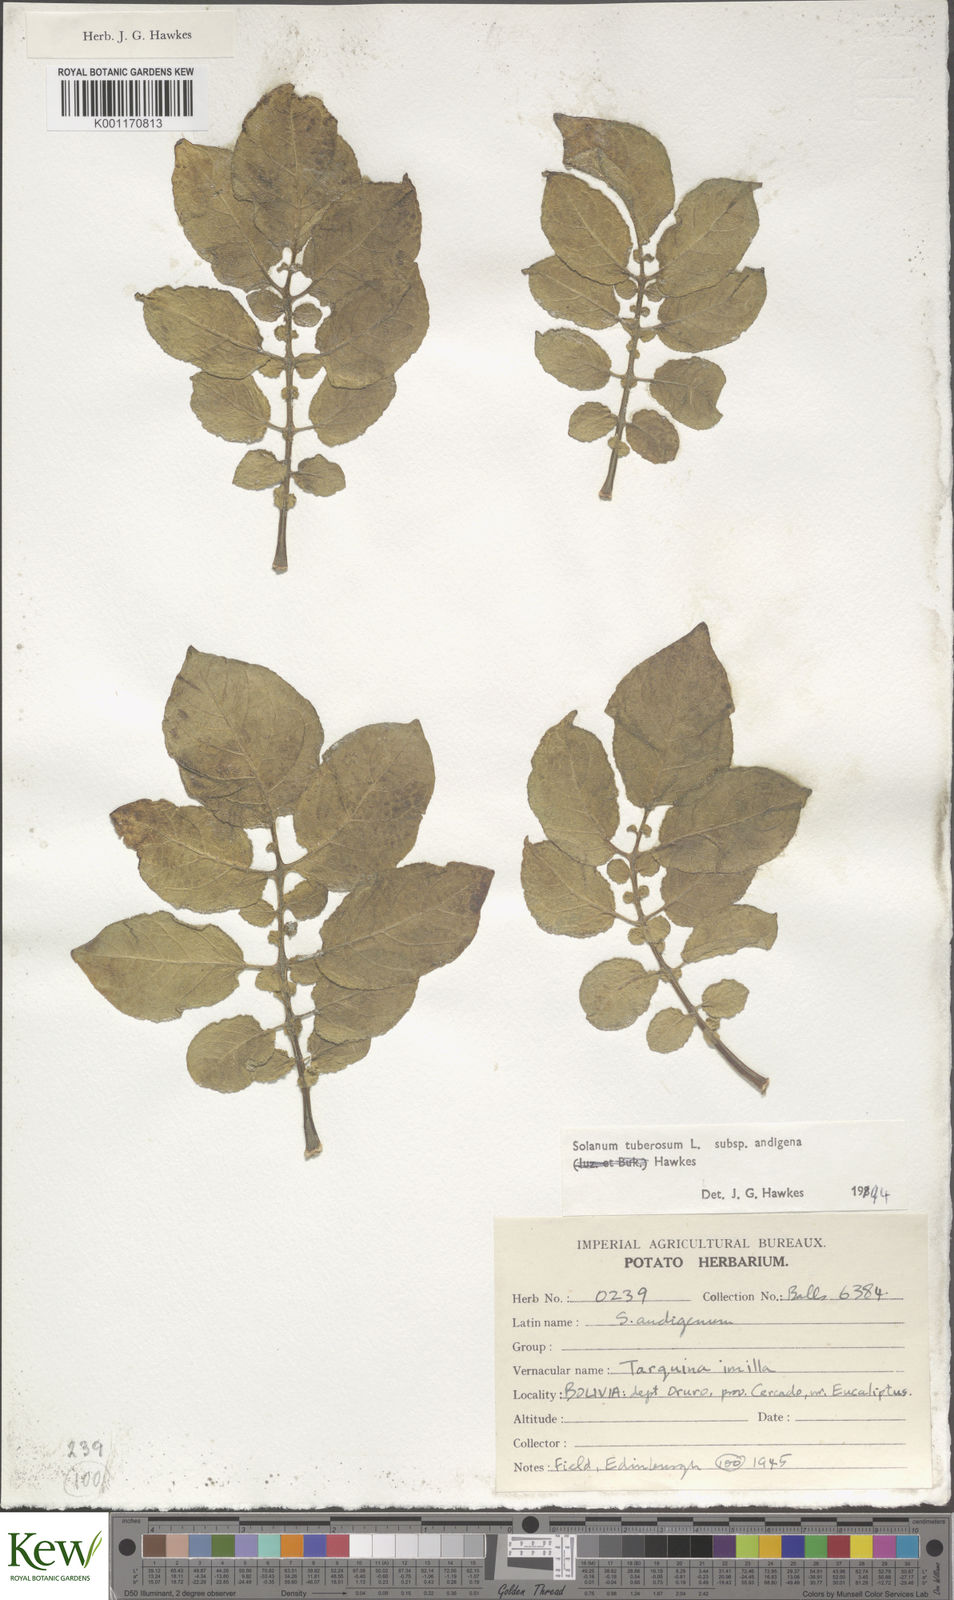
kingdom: Plantae
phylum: Tracheophyta
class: Magnoliopsida
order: Solanales
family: Solanaceae
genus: Solanum
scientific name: Solanum tuberosum
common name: Potato
